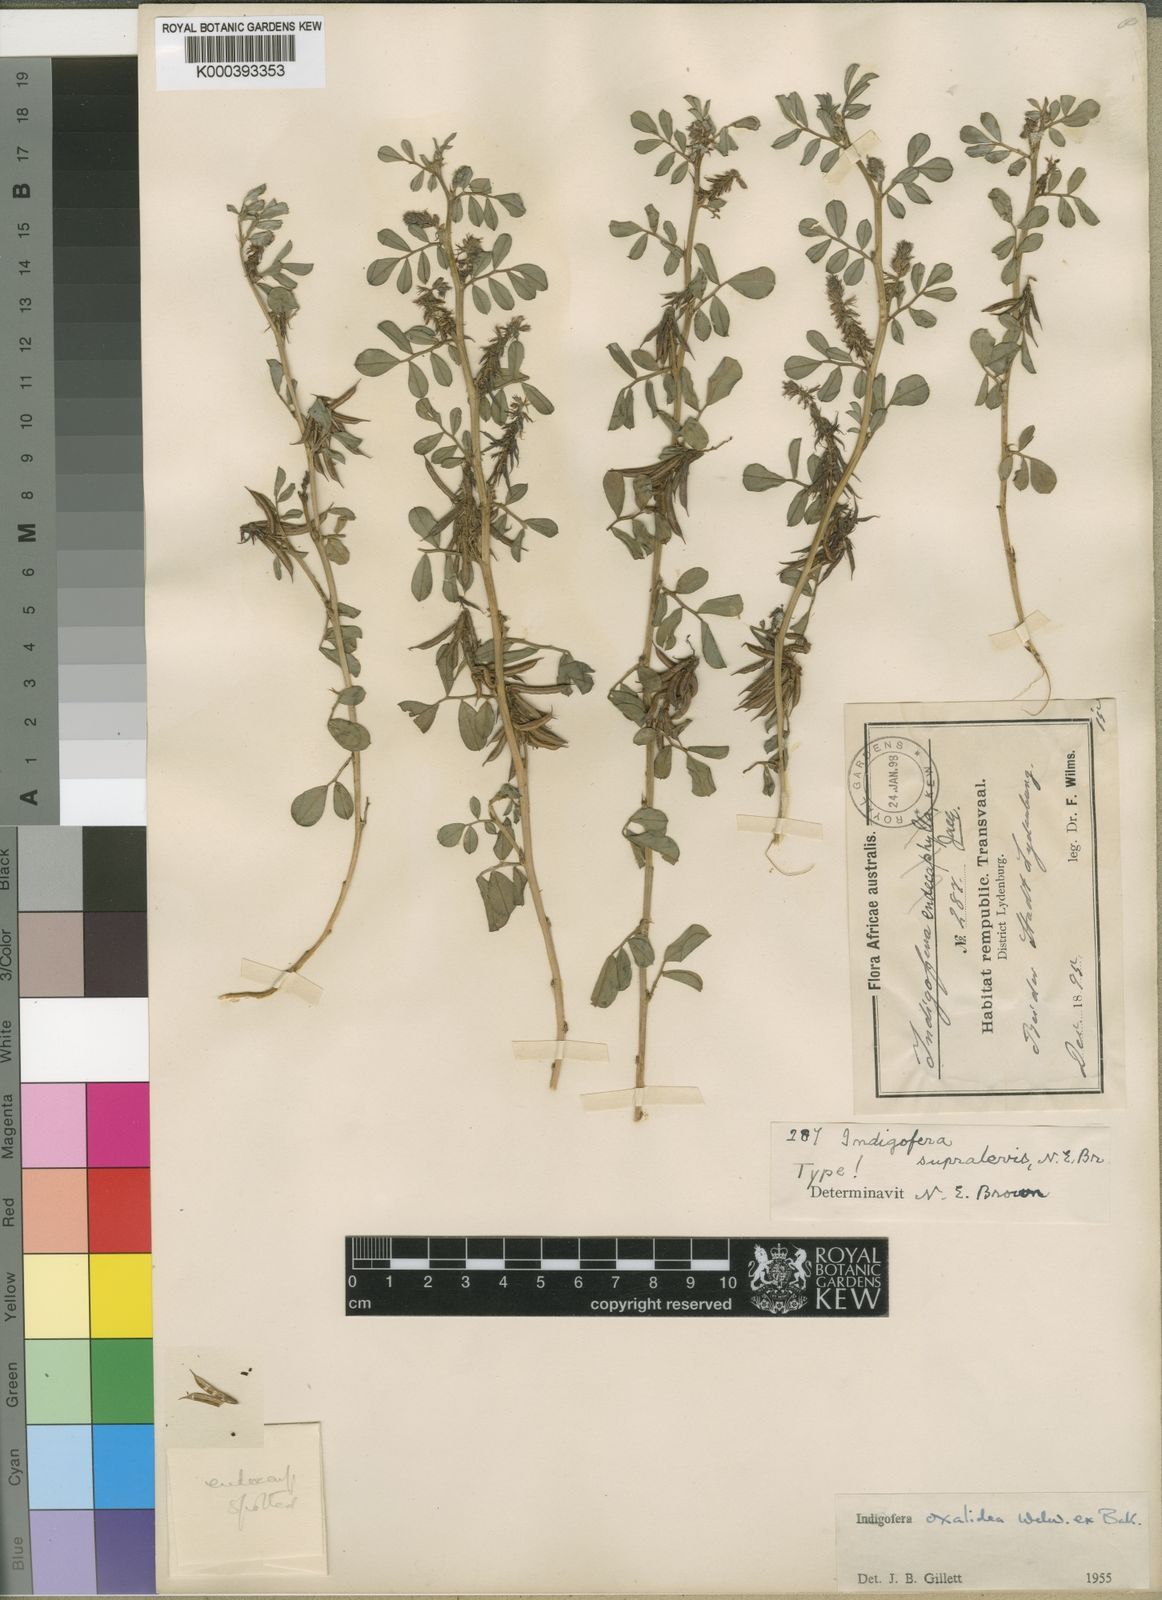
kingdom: Plantae
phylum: Tracheophyta
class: Magnoliopsida
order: Fabales
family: Fabaceae
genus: Indigofera
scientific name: Indigofera oxalidea
